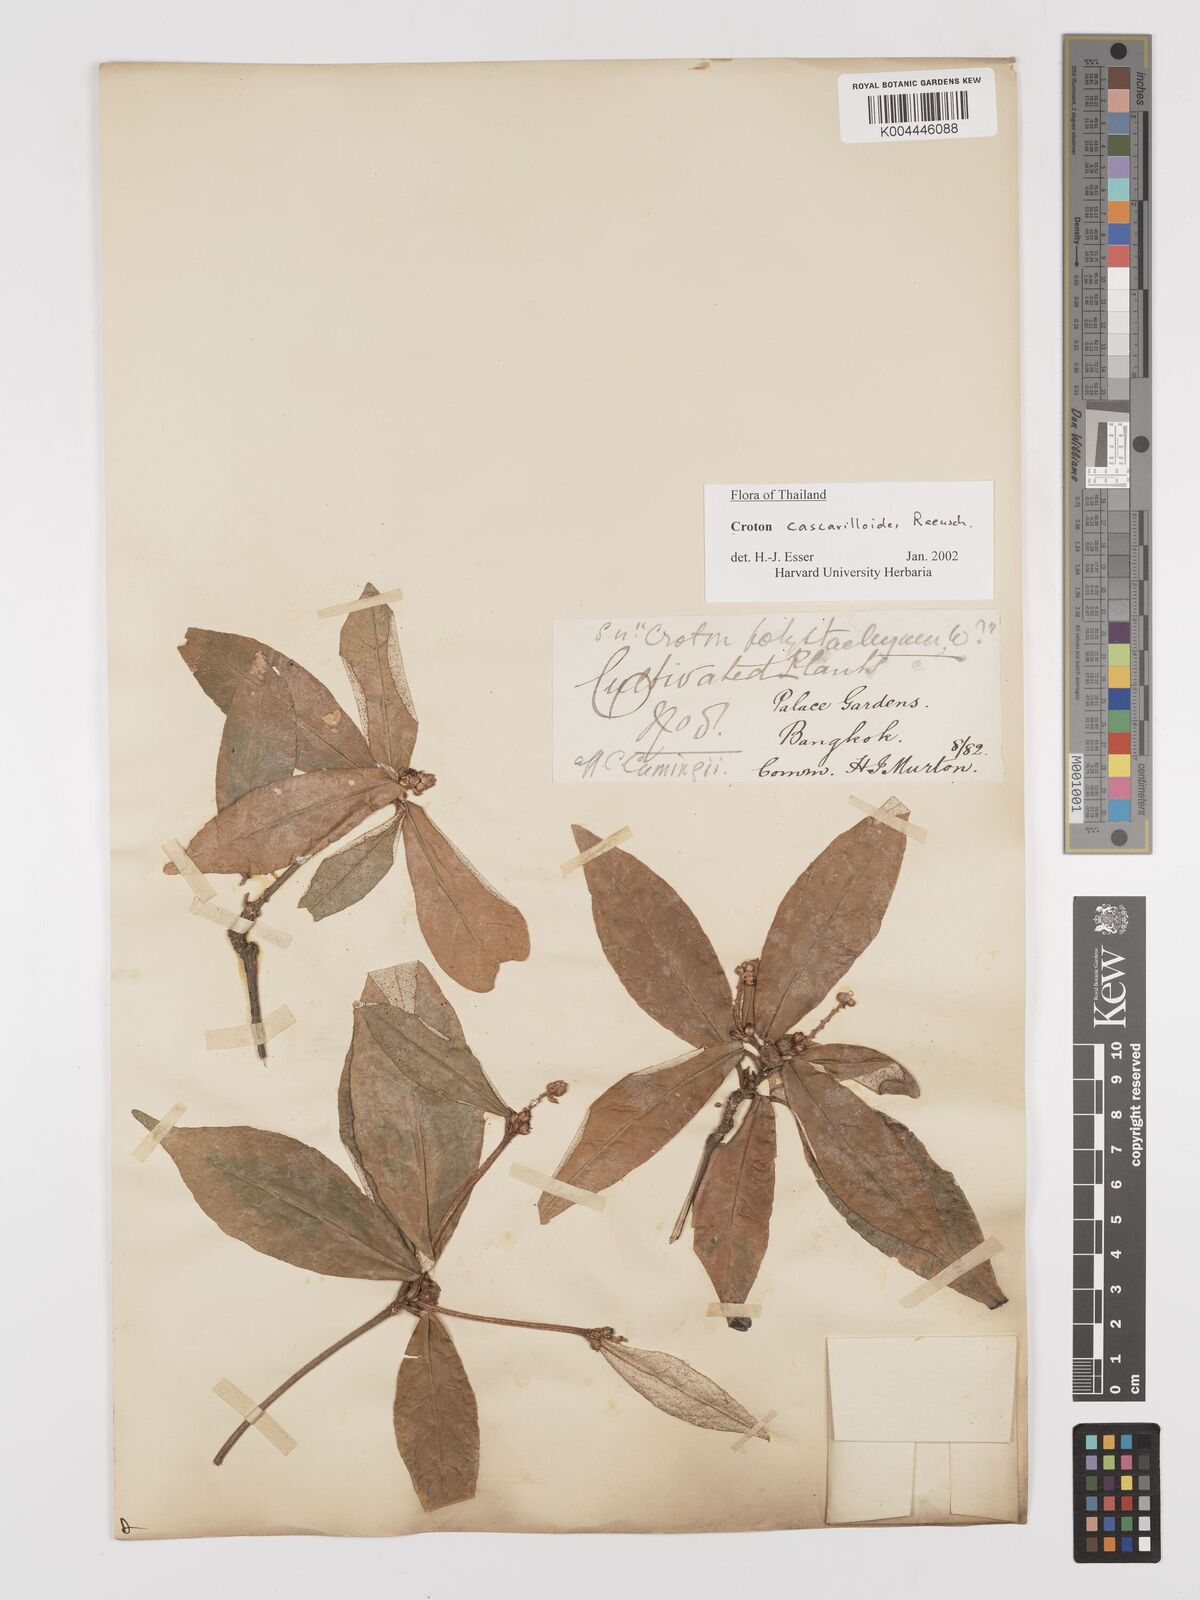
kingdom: Plantae
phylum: Tracheophyta
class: Magnoliopsida
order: Malpighiales
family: Euphorbiaceae
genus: Croton
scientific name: Croton cascarilloides
